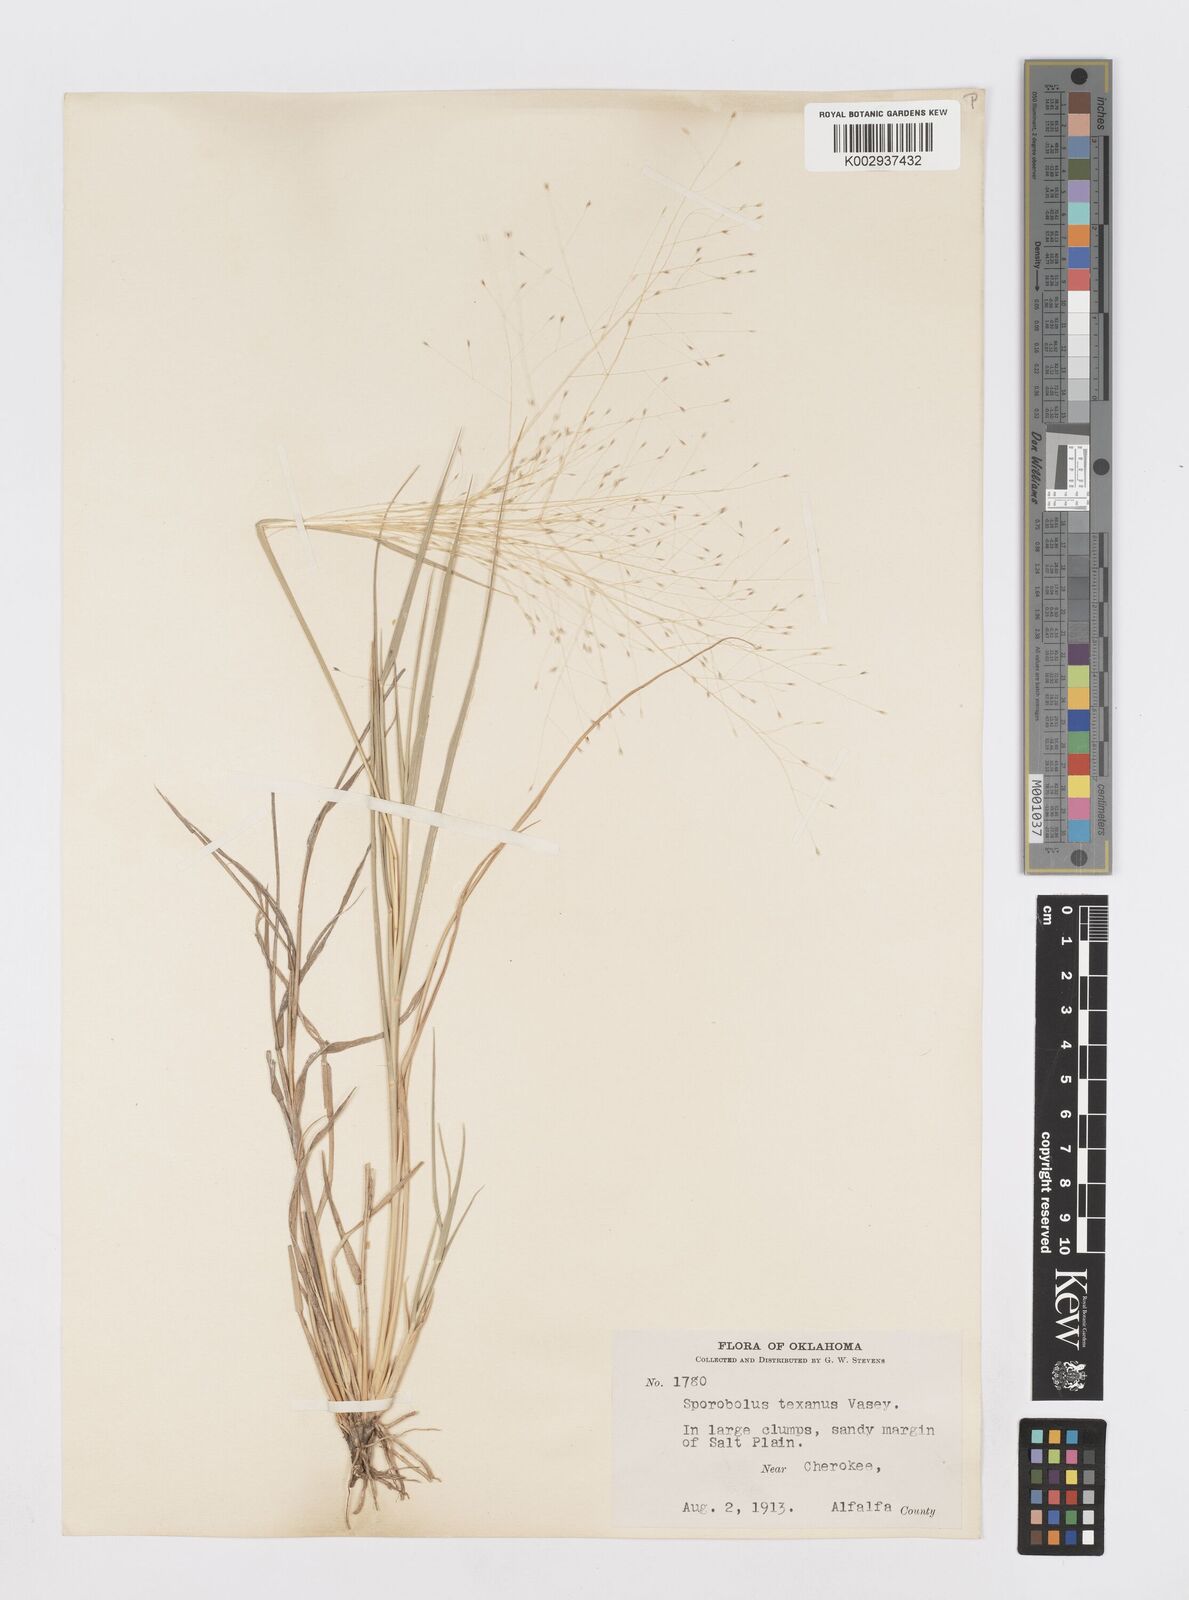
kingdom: Plantae
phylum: Tracheophyta
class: Liliopsida
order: Poales
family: Poaceae
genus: Sporobolus
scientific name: Sporobolus texanus
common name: Texas dropseed
